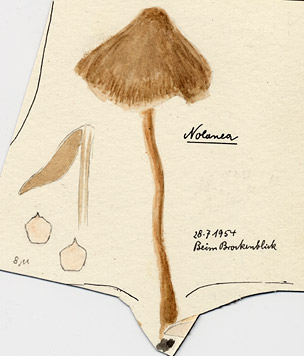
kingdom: Fungi
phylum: Basidiomycota
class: Agaricomycetes
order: Agaricales
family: Entolomataceae
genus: Entoloma
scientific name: Entoloma
